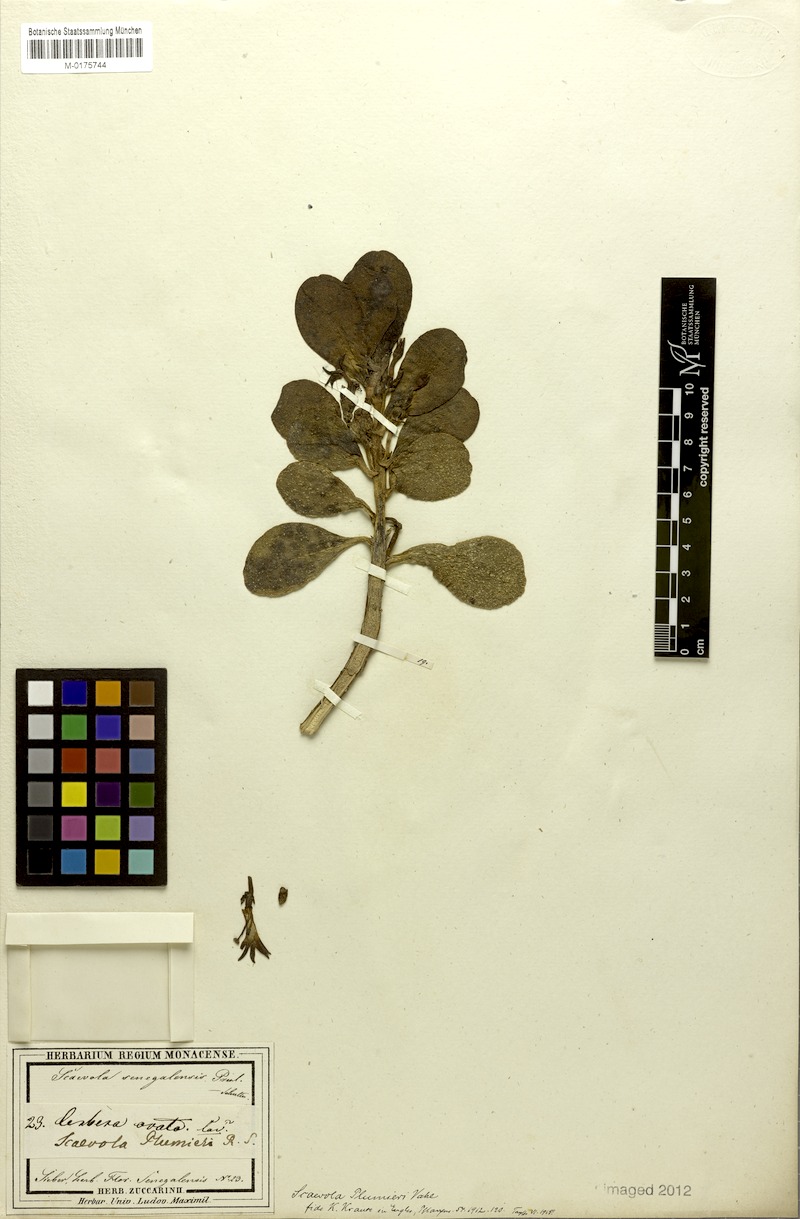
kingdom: Plantae
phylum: Tracheophyta
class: Magnoliopsida
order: Asterales
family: Goodeniaceae
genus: Scaevola
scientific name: Scaevola plumieri
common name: Gull feed
